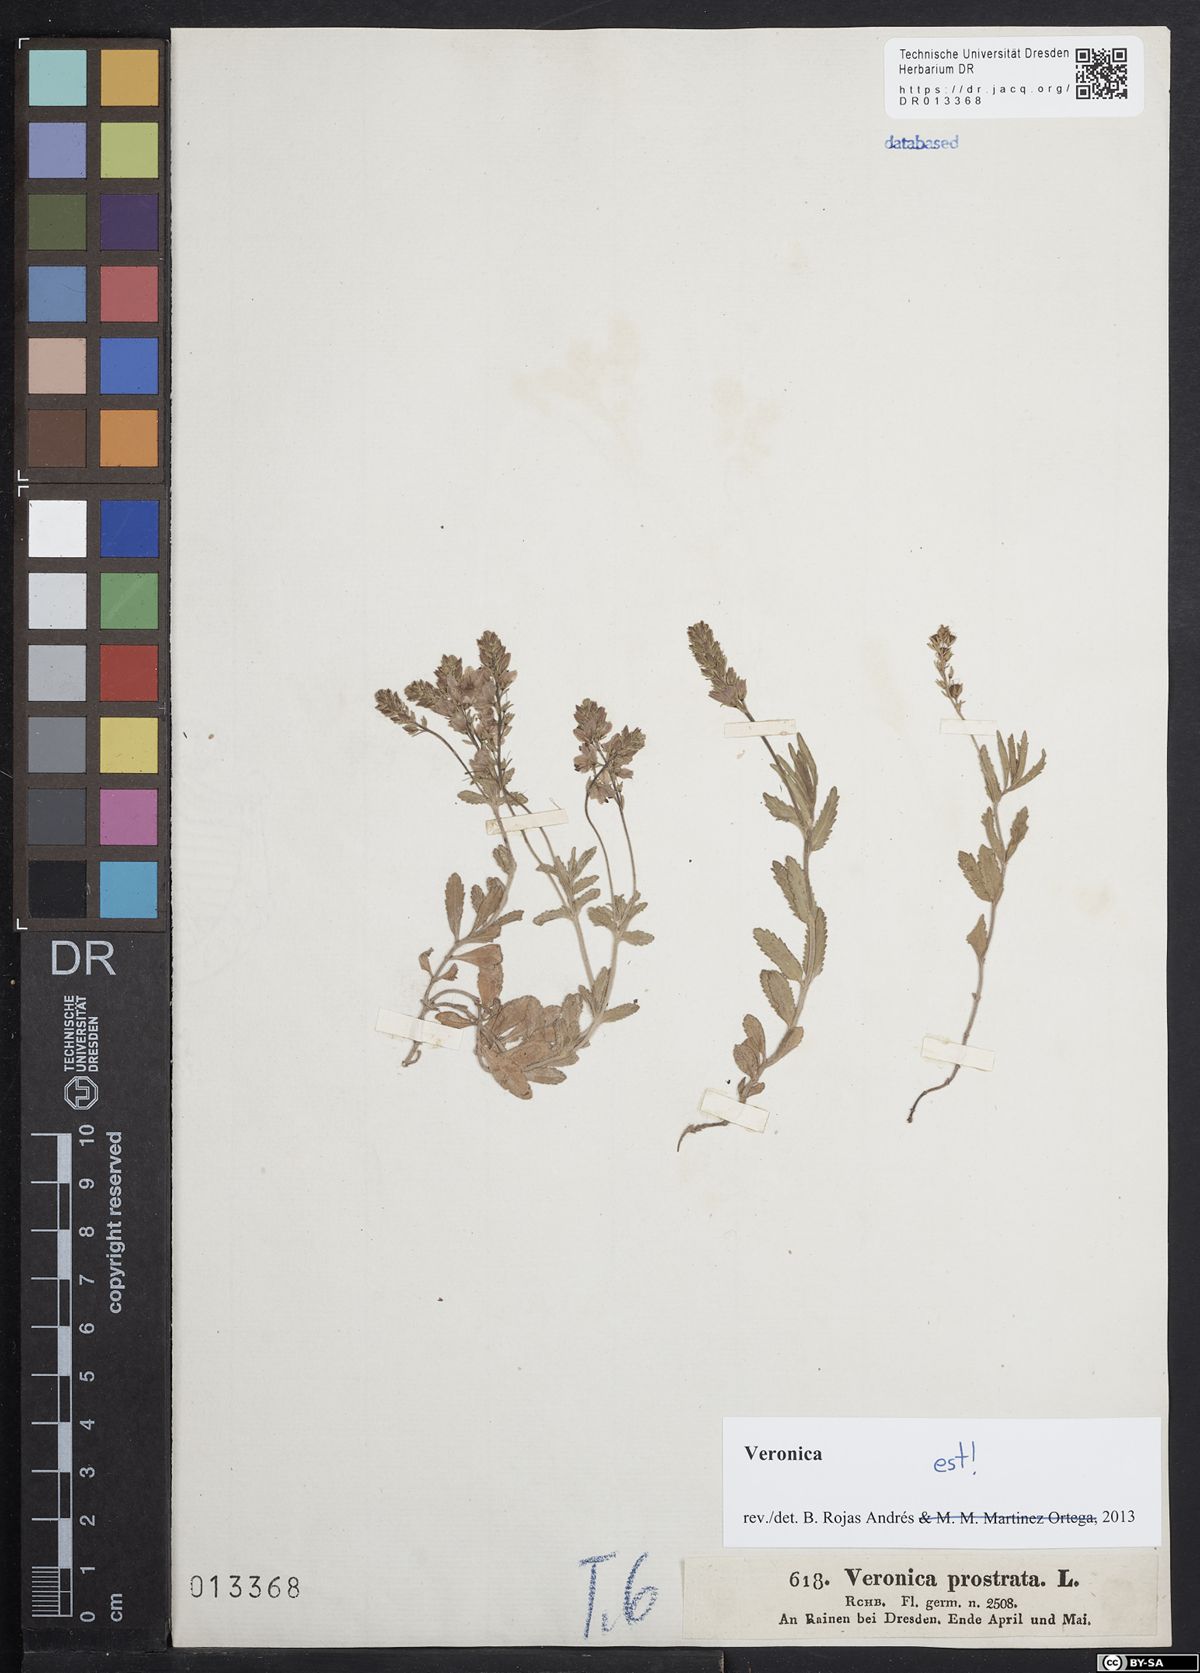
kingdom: Plantae
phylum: Tracheophyta
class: Magnoliopsida
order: Lamiales
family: Plantaginaceae
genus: Veronica
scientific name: Veronica prostrata
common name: Prostrate speedwell
